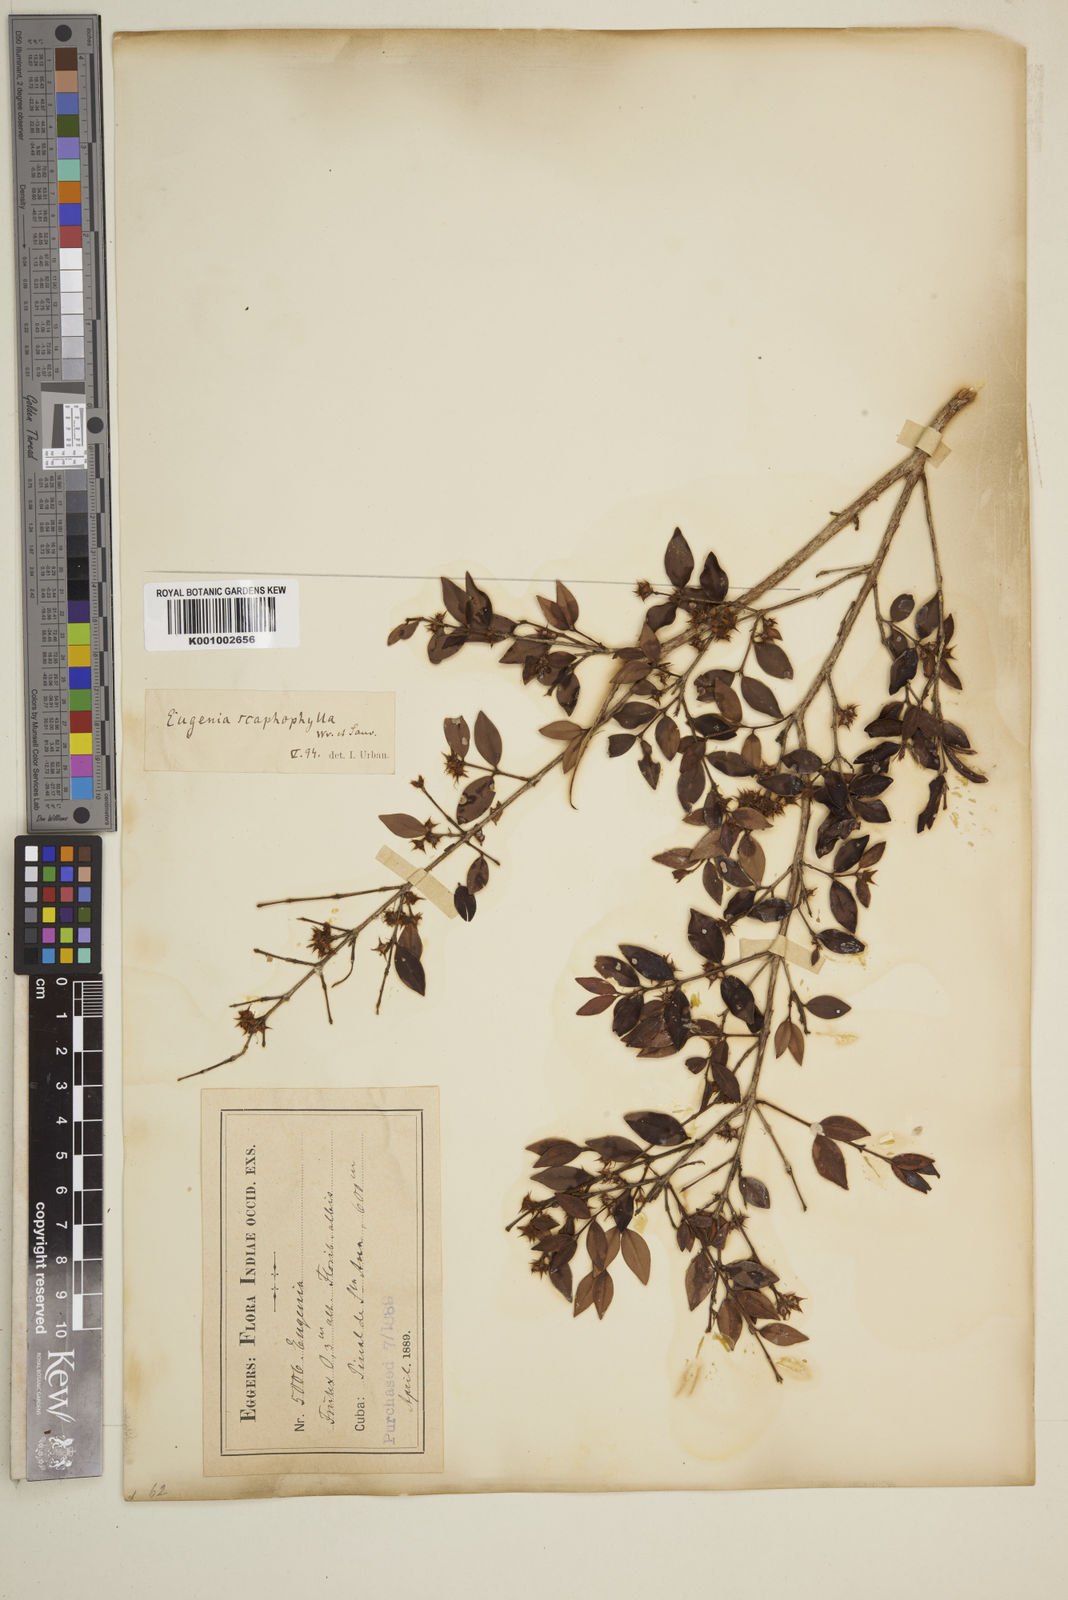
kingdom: Plantae
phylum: Tracheophyta
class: Magnoliopsida
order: Myrtales
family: Myrtaceae
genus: Eugenia
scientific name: Eugenia scaphephylla
